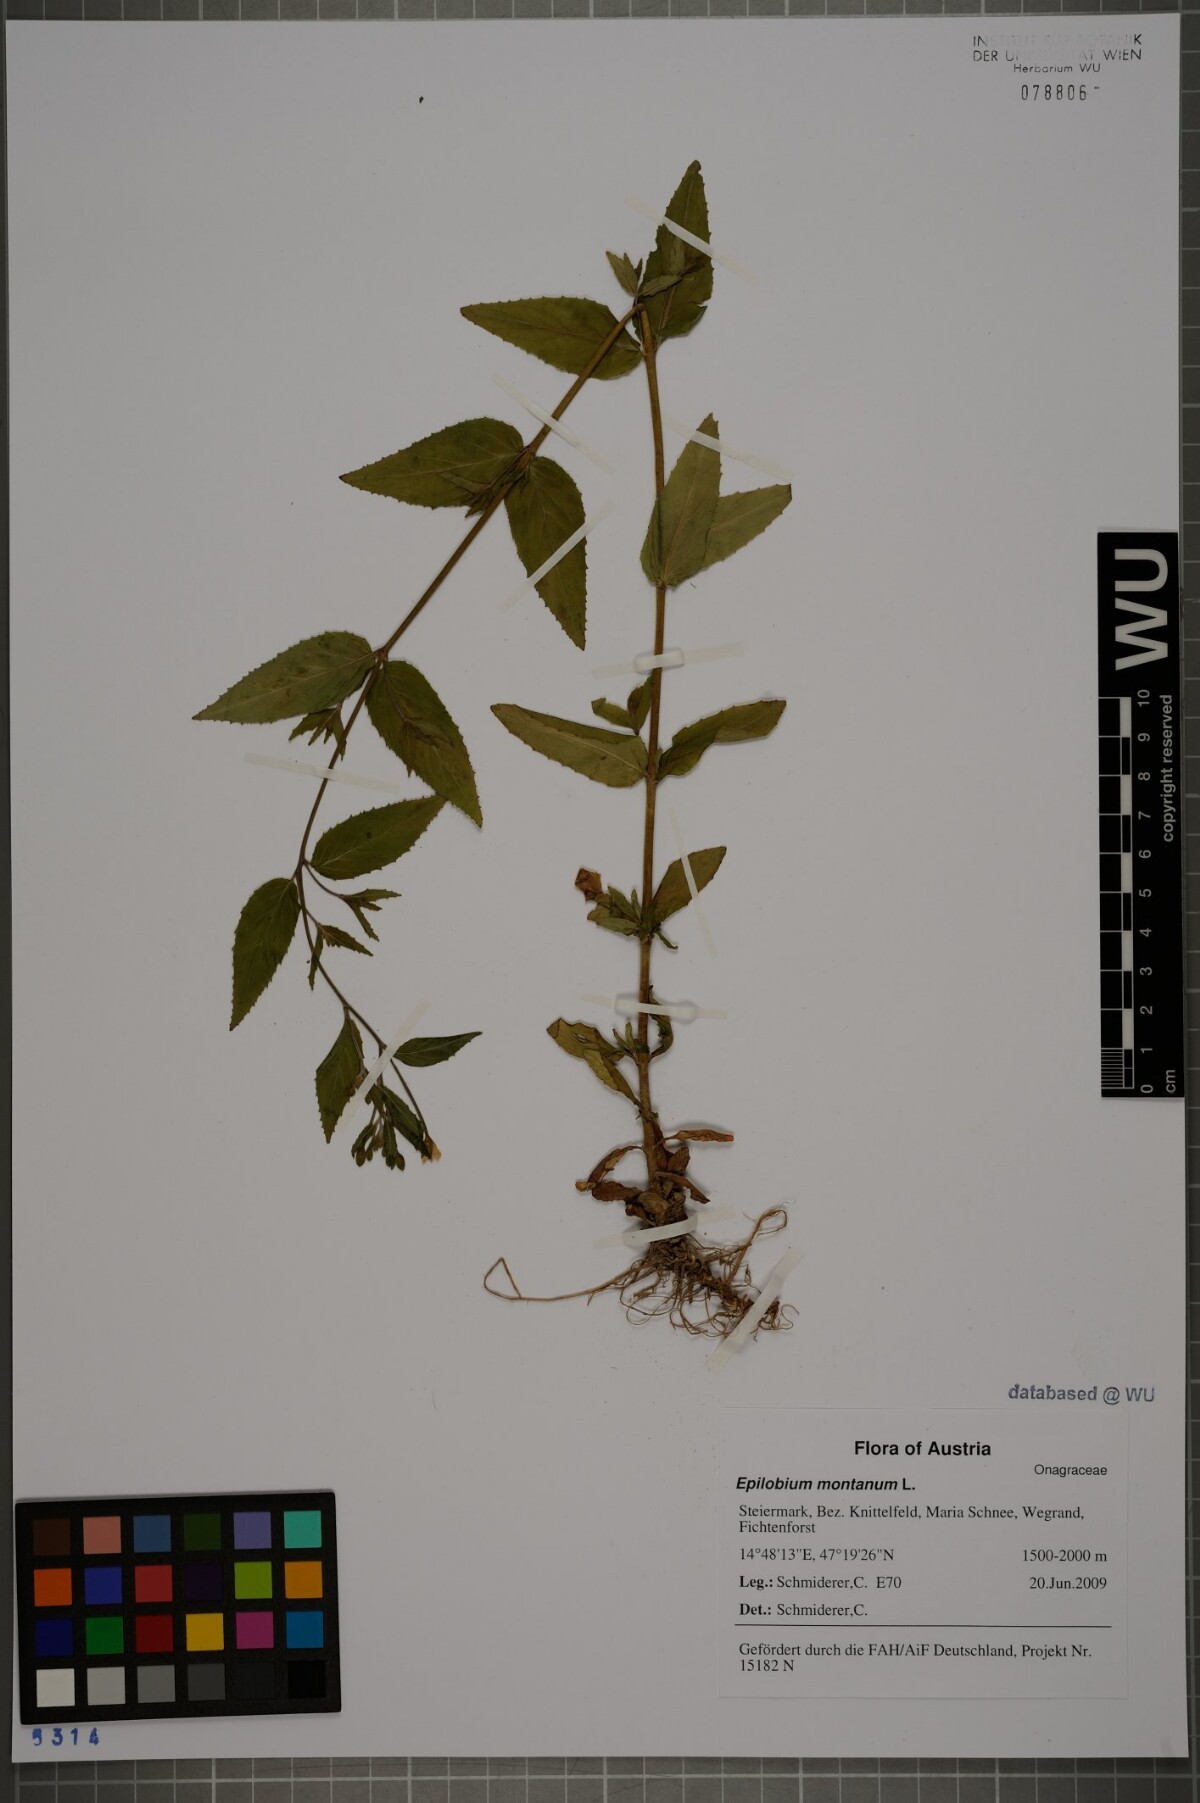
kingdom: Plantae
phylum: Tracheophyta
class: Magnoliopsida
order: Myrtales
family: Onagraceae
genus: Epilobium
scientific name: Epilobium montanum
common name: Broad-leaved willowherb
